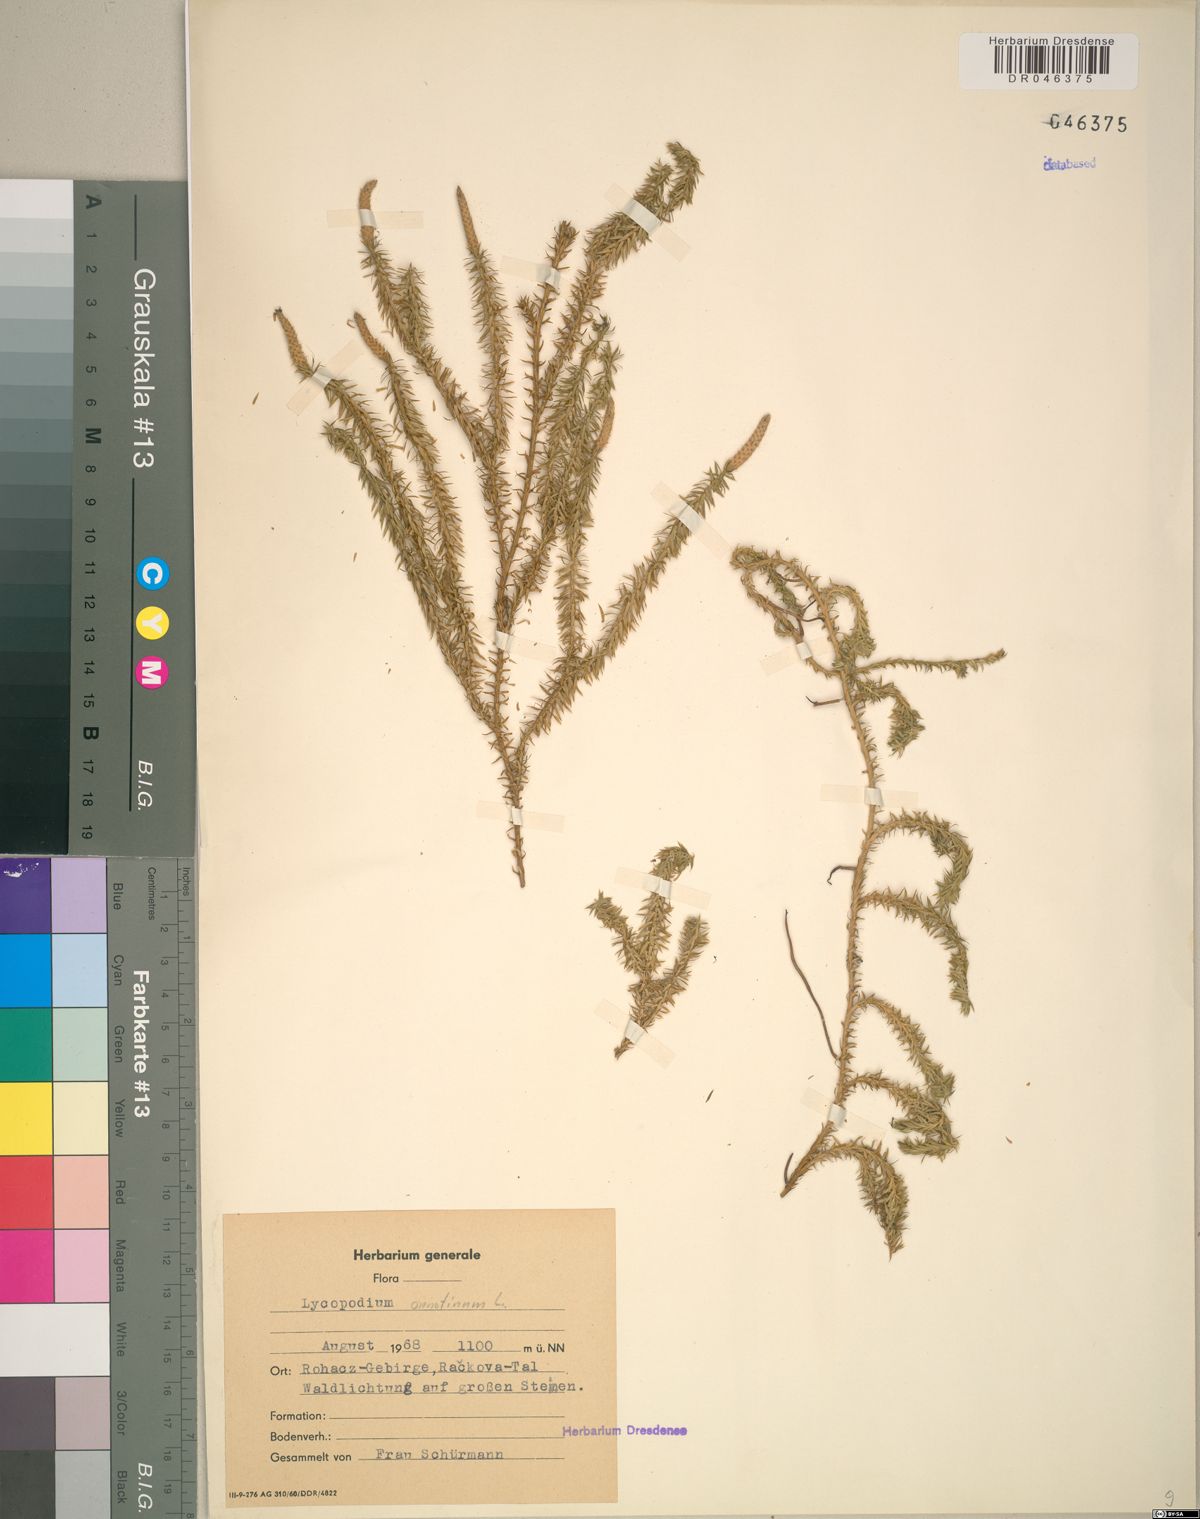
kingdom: Plantae
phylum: Tracheophyta
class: Lycopodiopsida
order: Lycopodiales
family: Lycopodiaceae
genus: Spinulum
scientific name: Spinulum annotinum
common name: Interrupted club-moss
